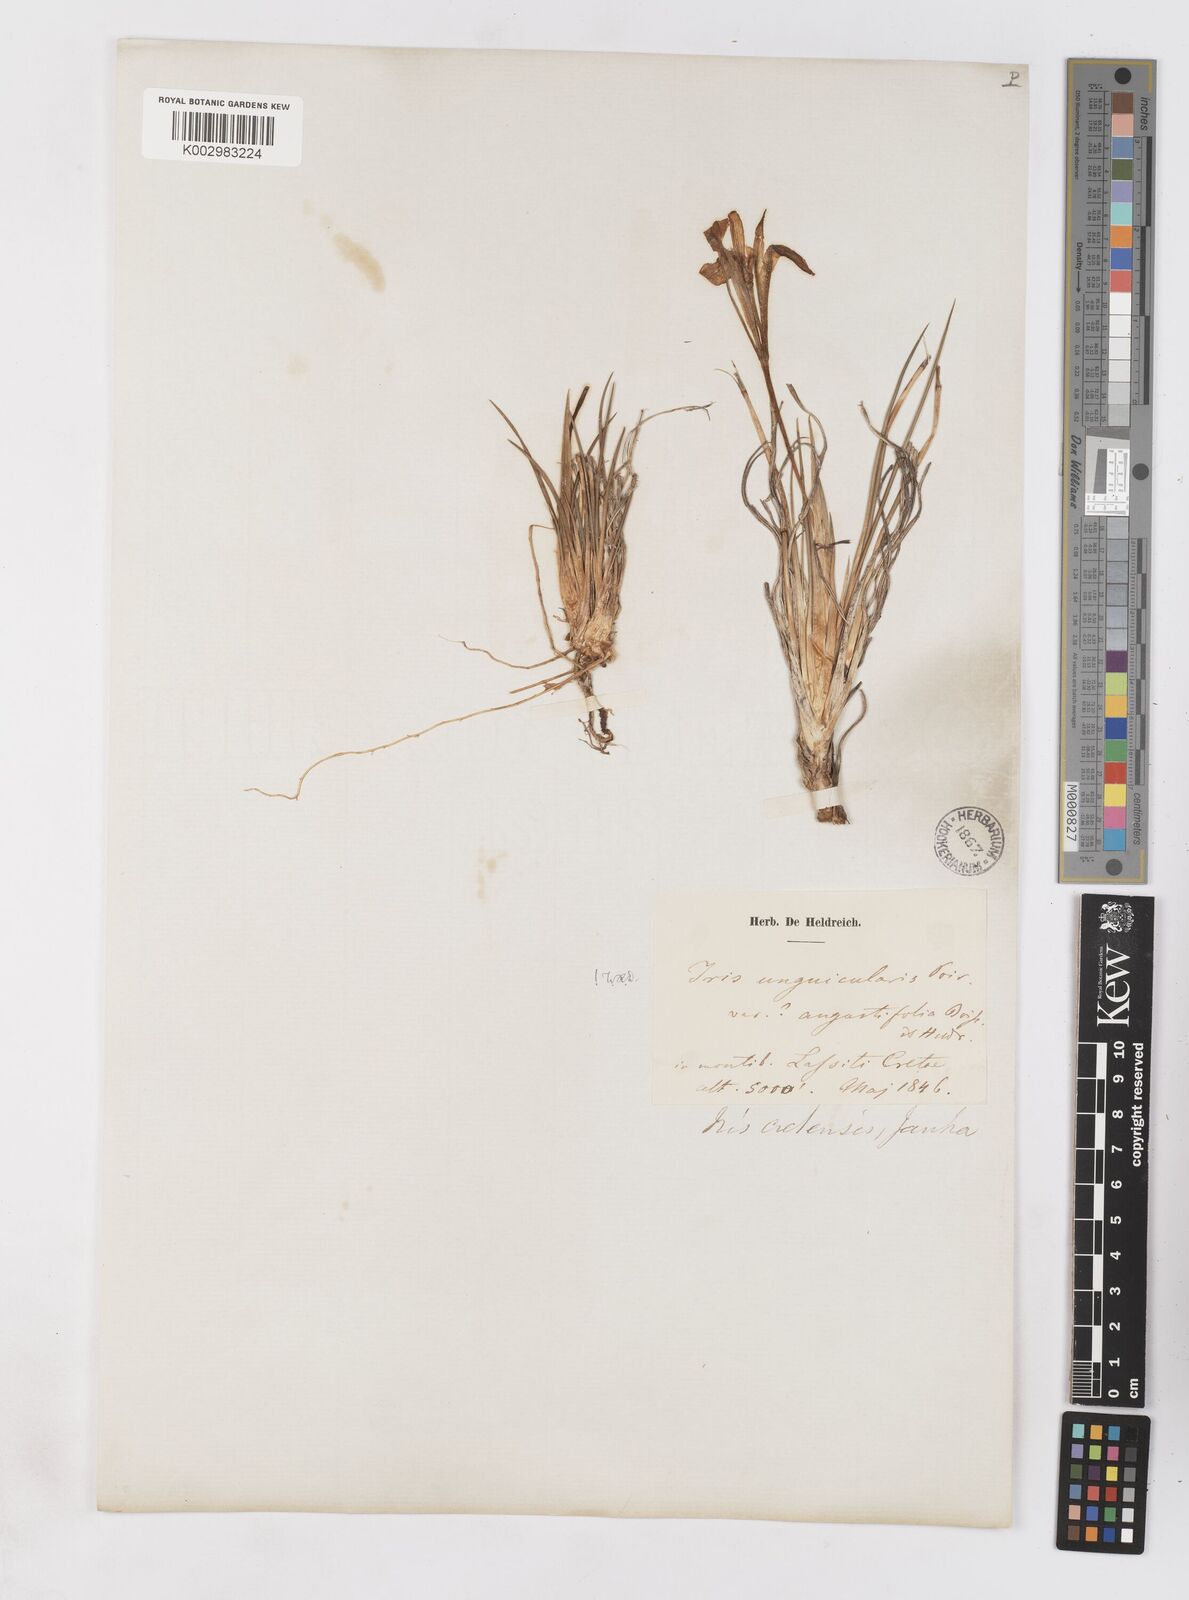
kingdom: Plantae
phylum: Tracheophyta
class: Liliopsida
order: Asparagales
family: Iridaceae
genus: Iris
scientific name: Iris unguicularis
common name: Algerian iris
